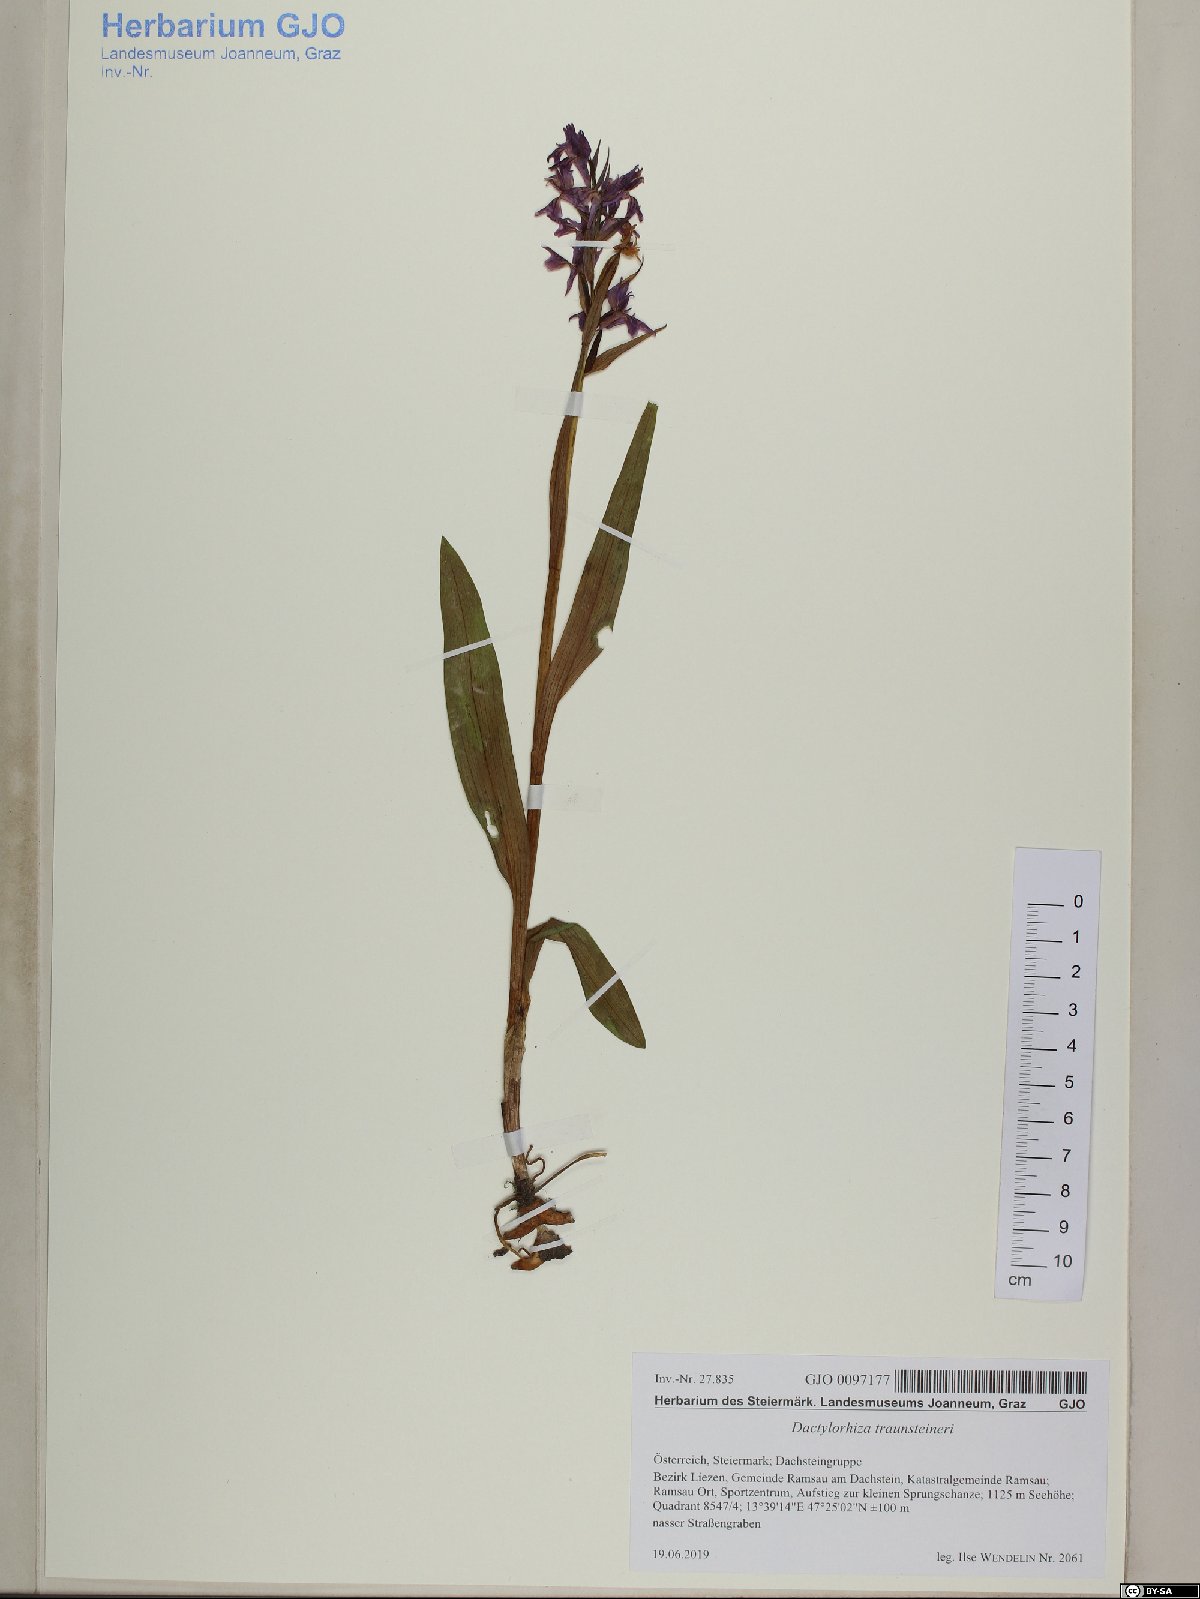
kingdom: Plantae
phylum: Tracheophyta
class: Liliopsida
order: Asparagales
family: Orchidaceae
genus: Dactylorhiza
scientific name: Dactylorhiza majalis
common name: Marsh orchid
